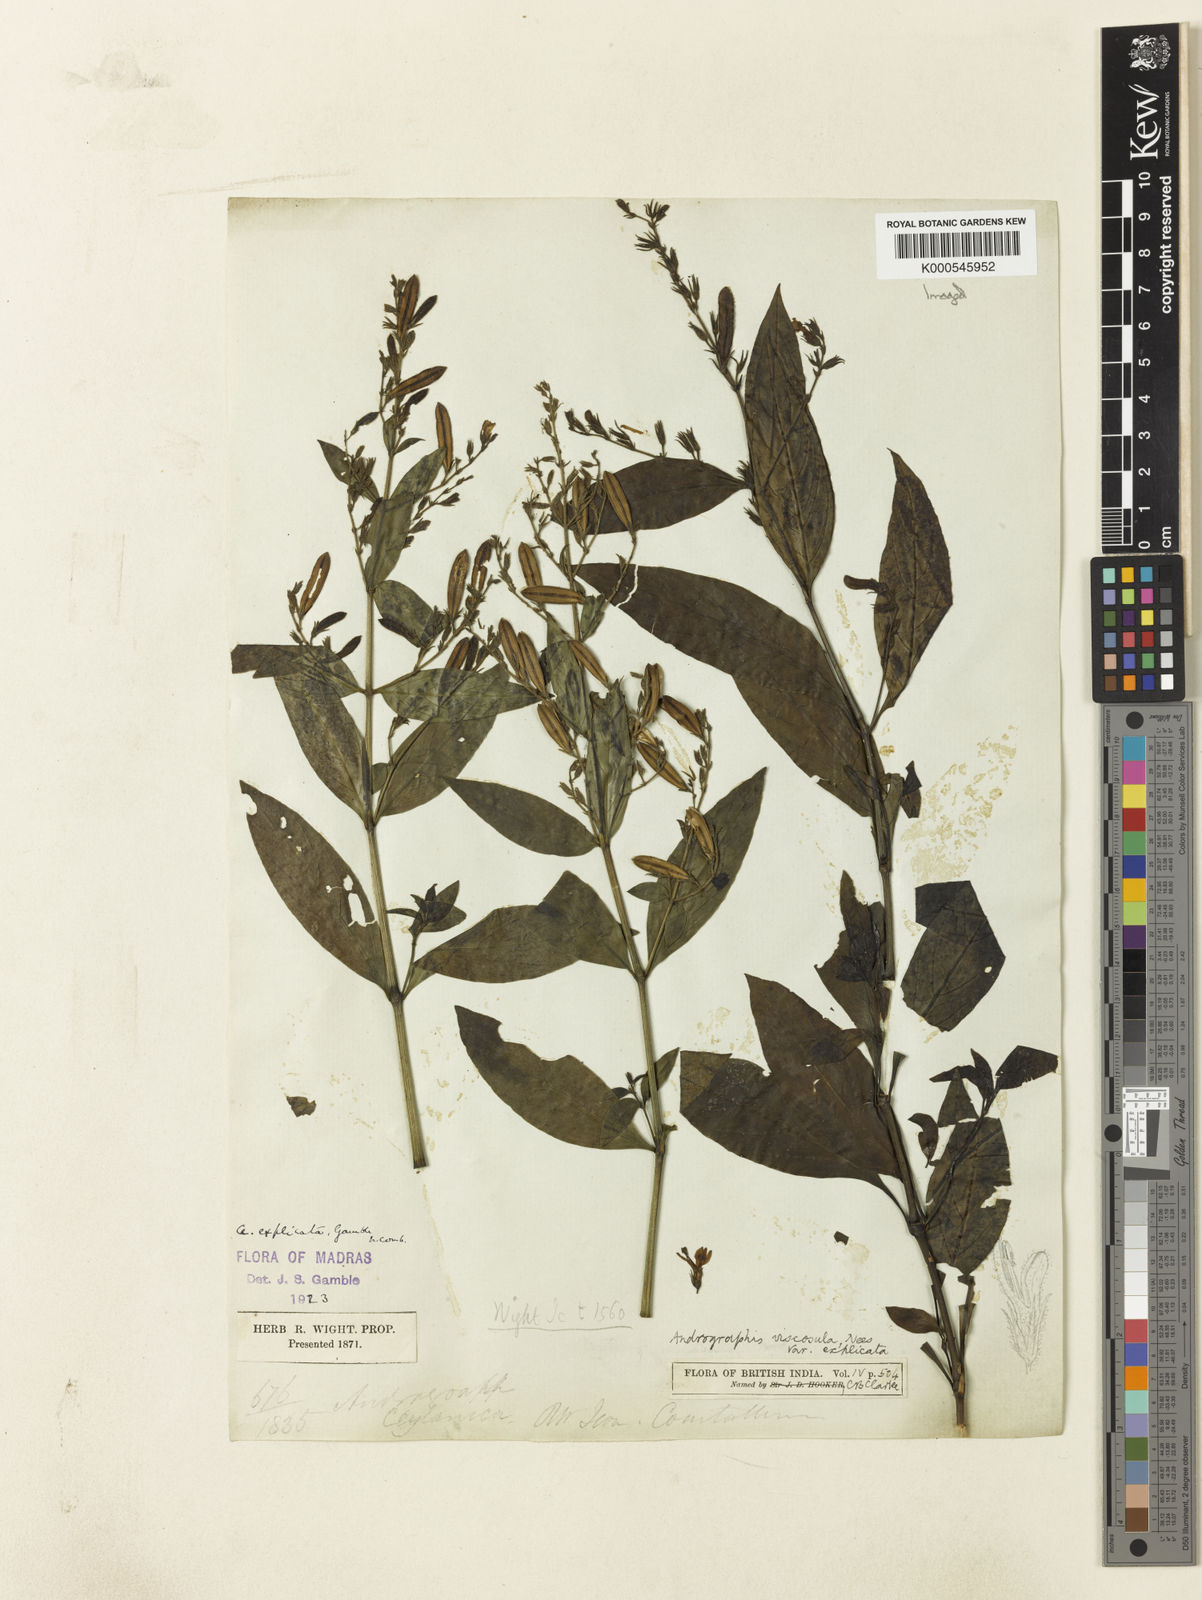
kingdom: Plantae
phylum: Tracheophyta
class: Magnoliopsida
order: Lamiales
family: Acanthaceae
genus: Andrographis
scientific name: Andrographis viscosula
